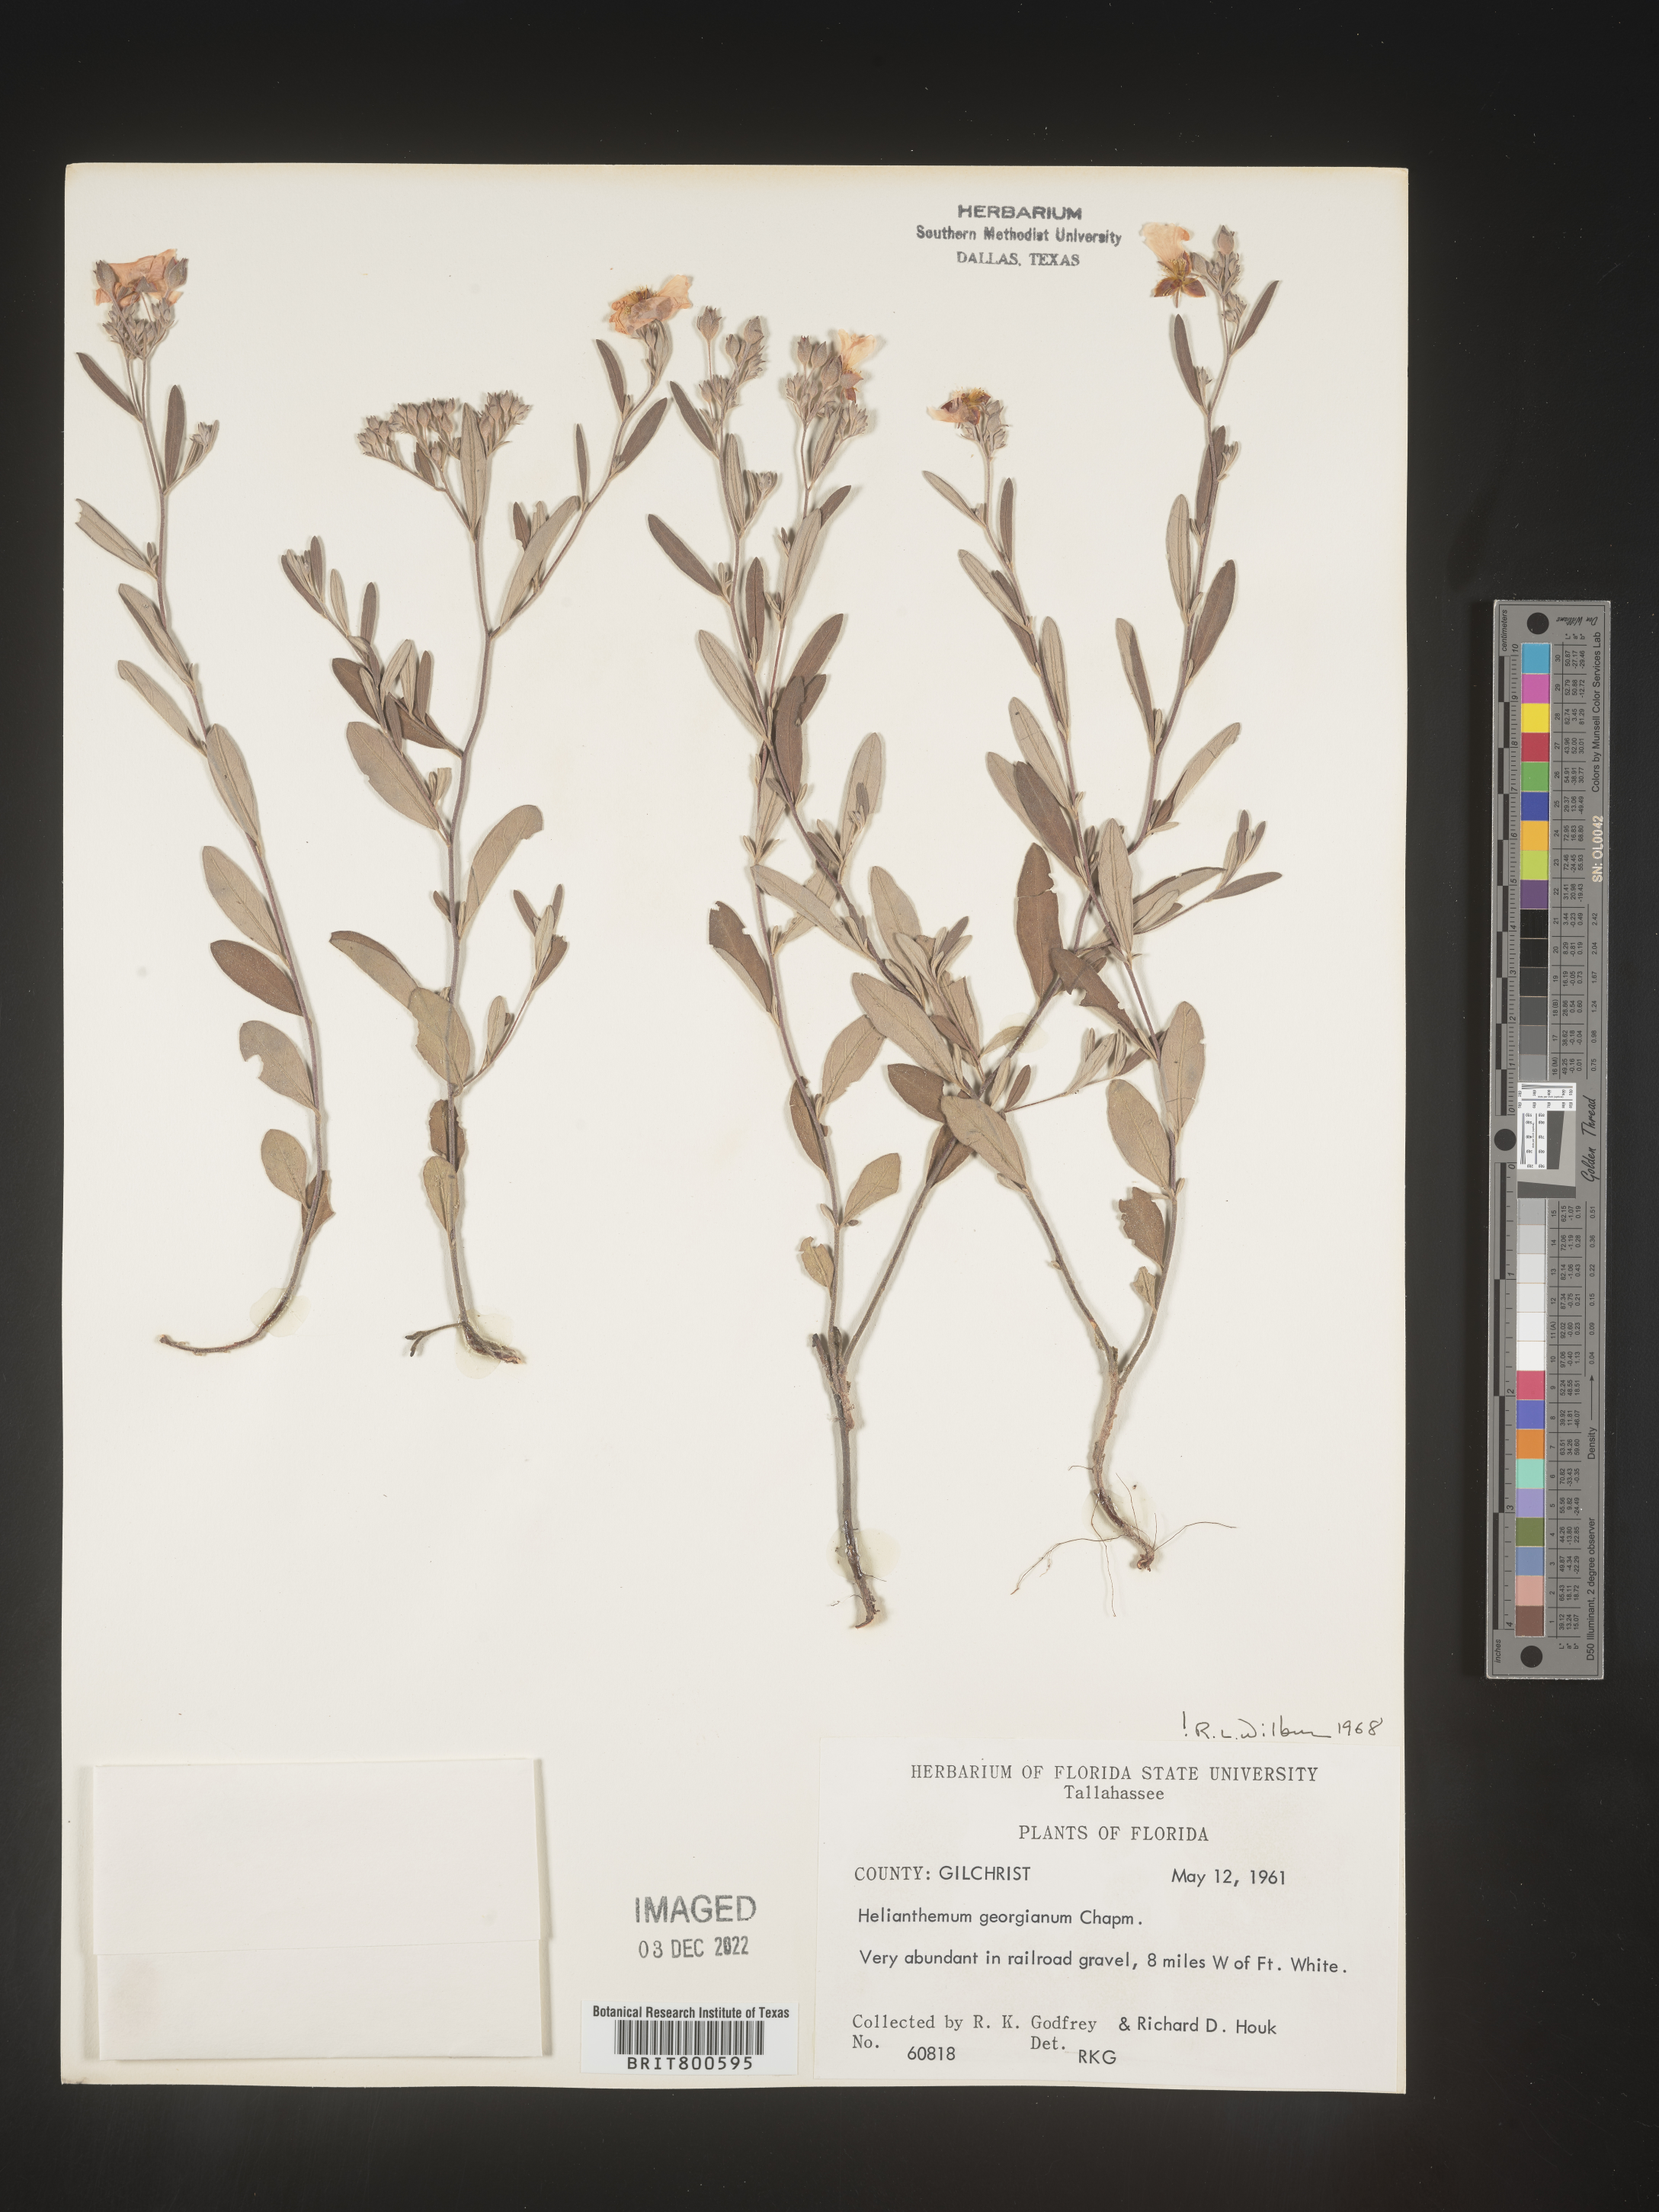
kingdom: Plantae
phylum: Tracheophyta
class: Magnoliopsida
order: Malvales
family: Cistaceae
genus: Crocanthemum
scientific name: Crocanthemum georgianum
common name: Georgia frostweed
